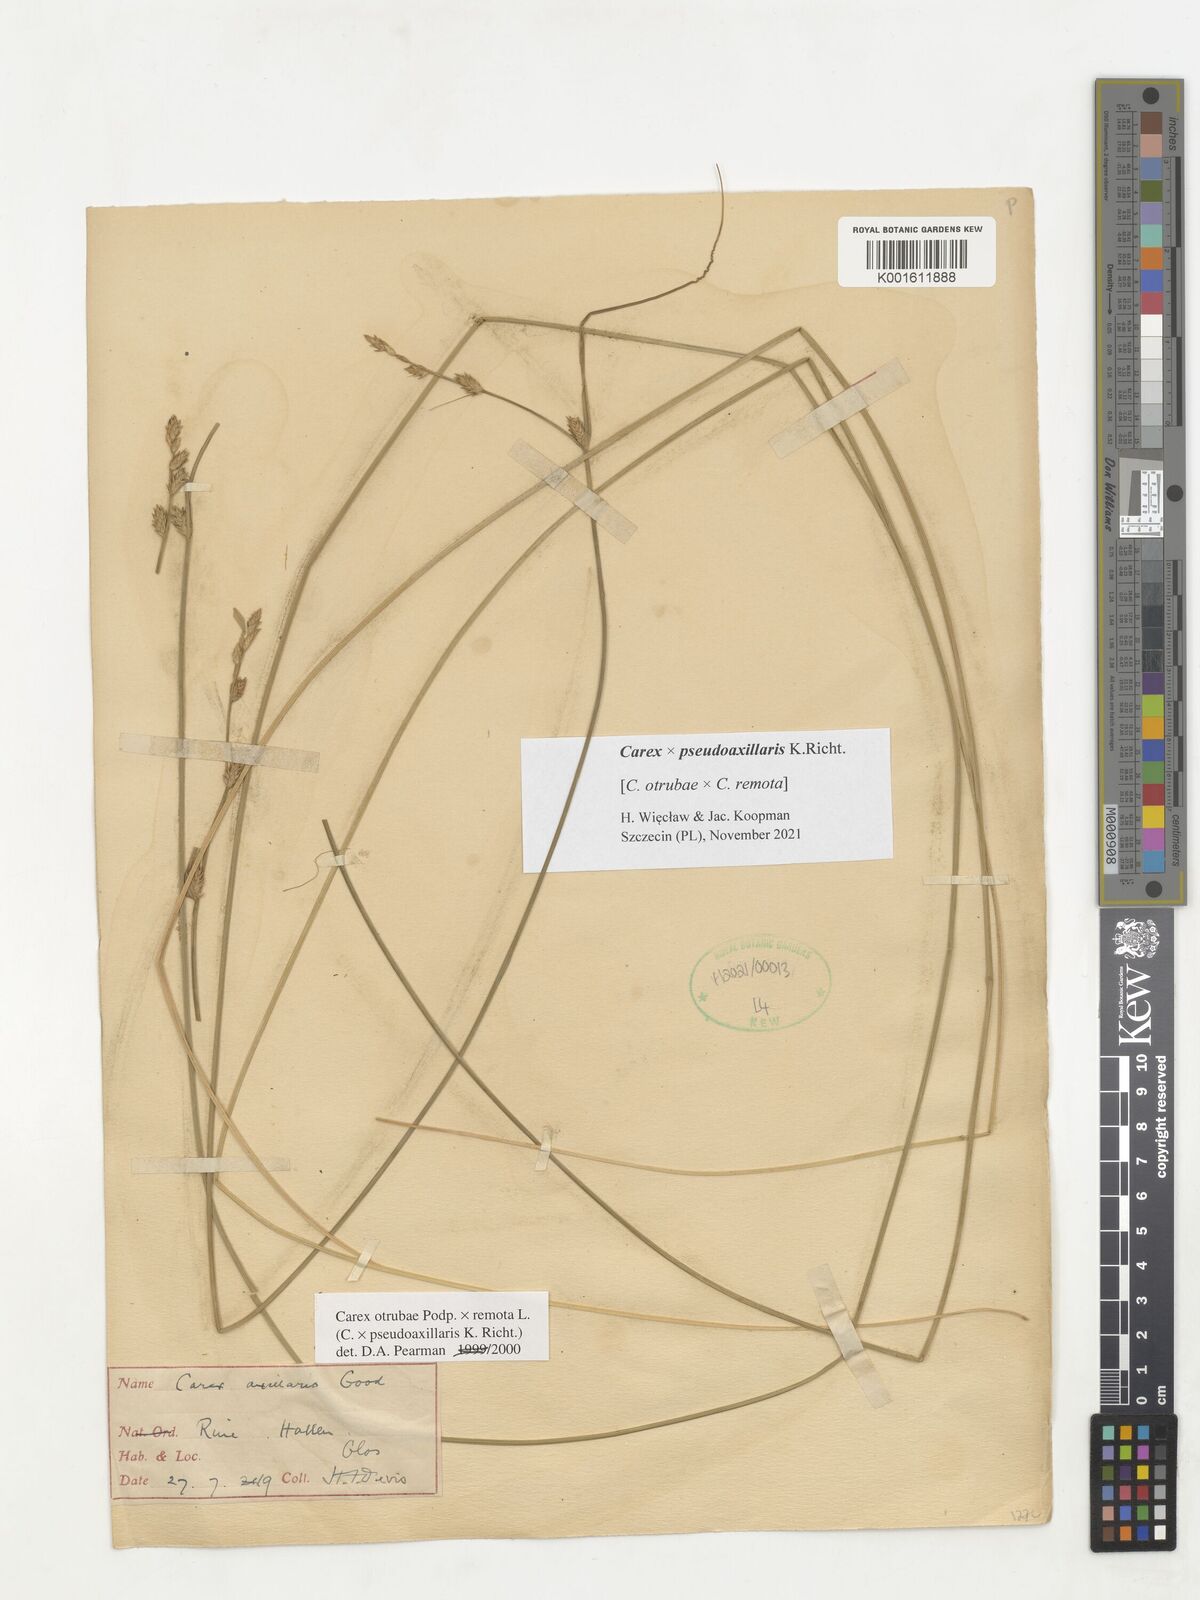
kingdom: Plantae
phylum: Tracheophyta
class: Liliopsida
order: Poales
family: Cyperaceae
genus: Carex
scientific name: Carex pseudoaxillaris
